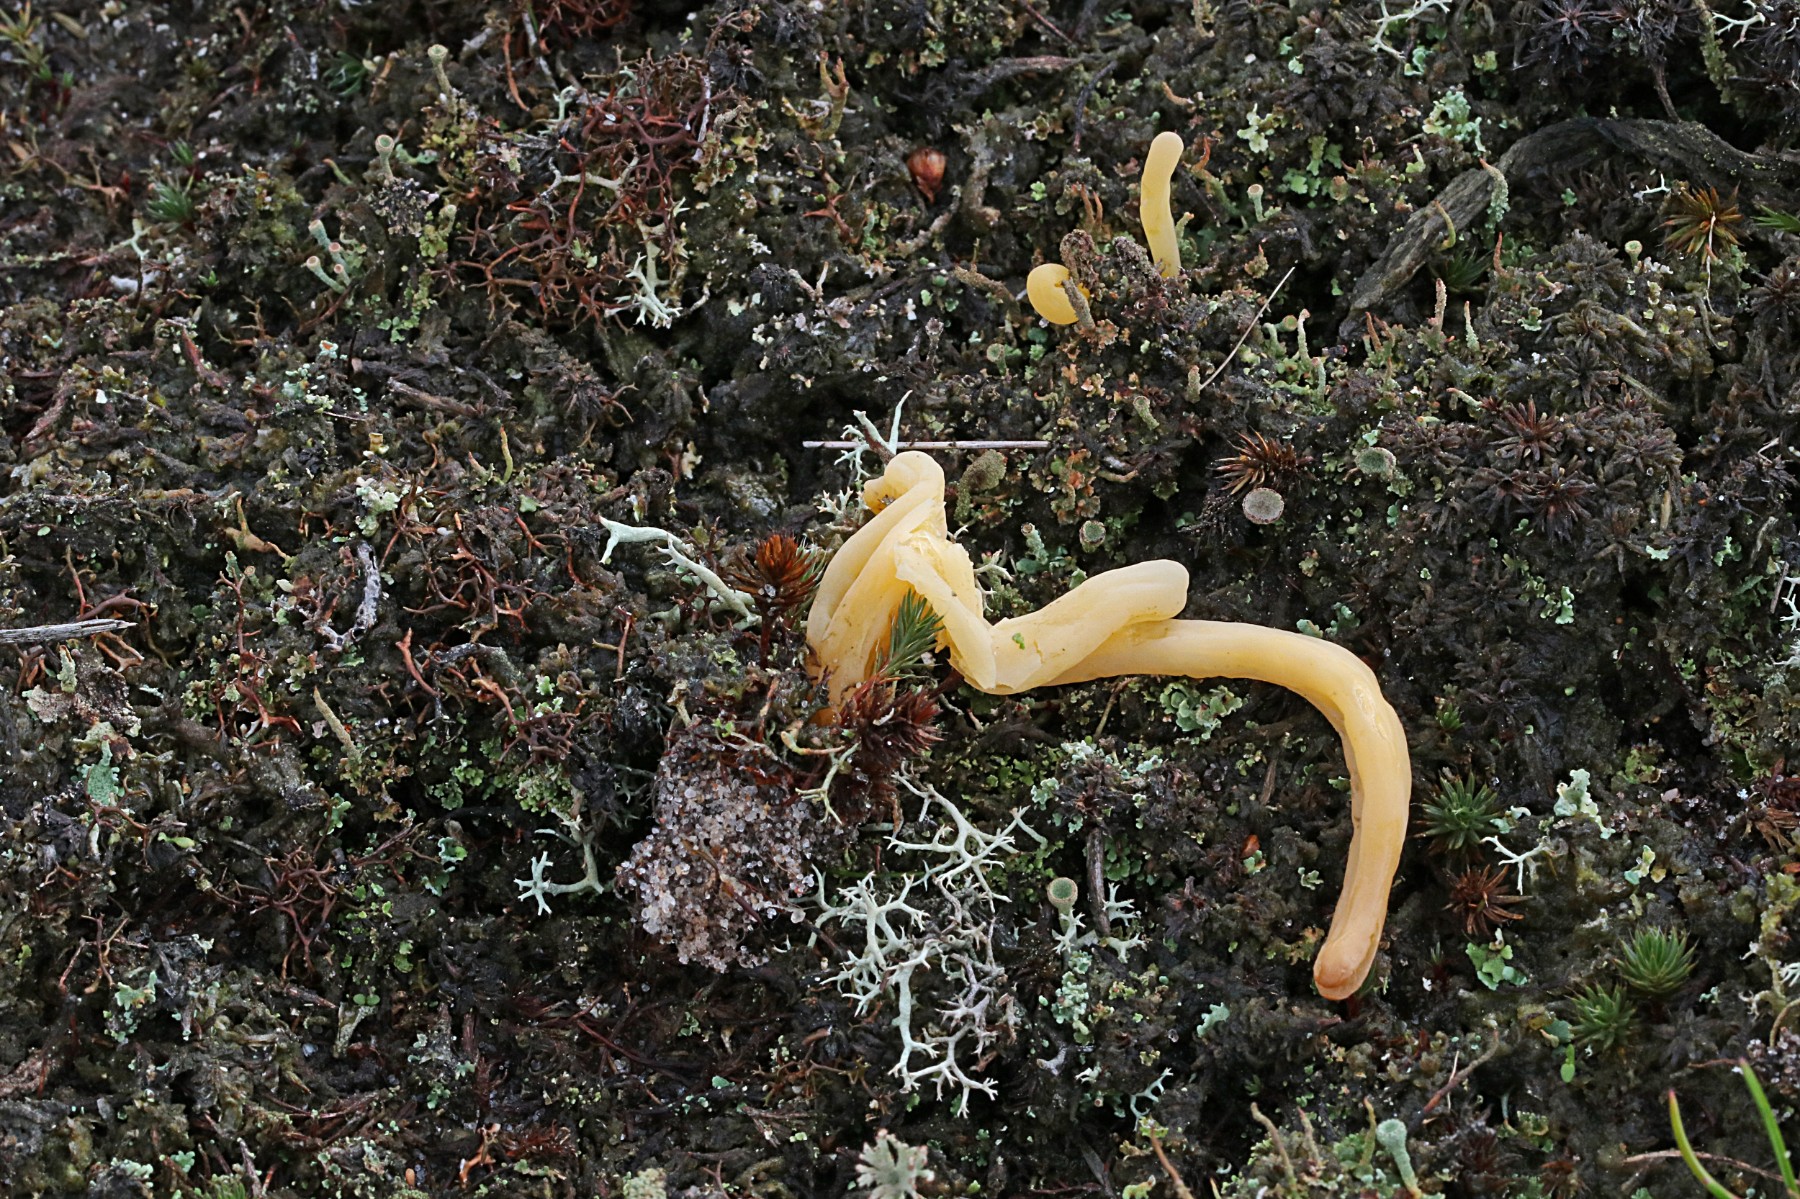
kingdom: Fungi
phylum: Basidiomycota
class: Agaricomycetes
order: Agaricales
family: Clavariaceae
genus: Clavaria
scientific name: Clavaria argillacea
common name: lerfarvet køllesvamp
